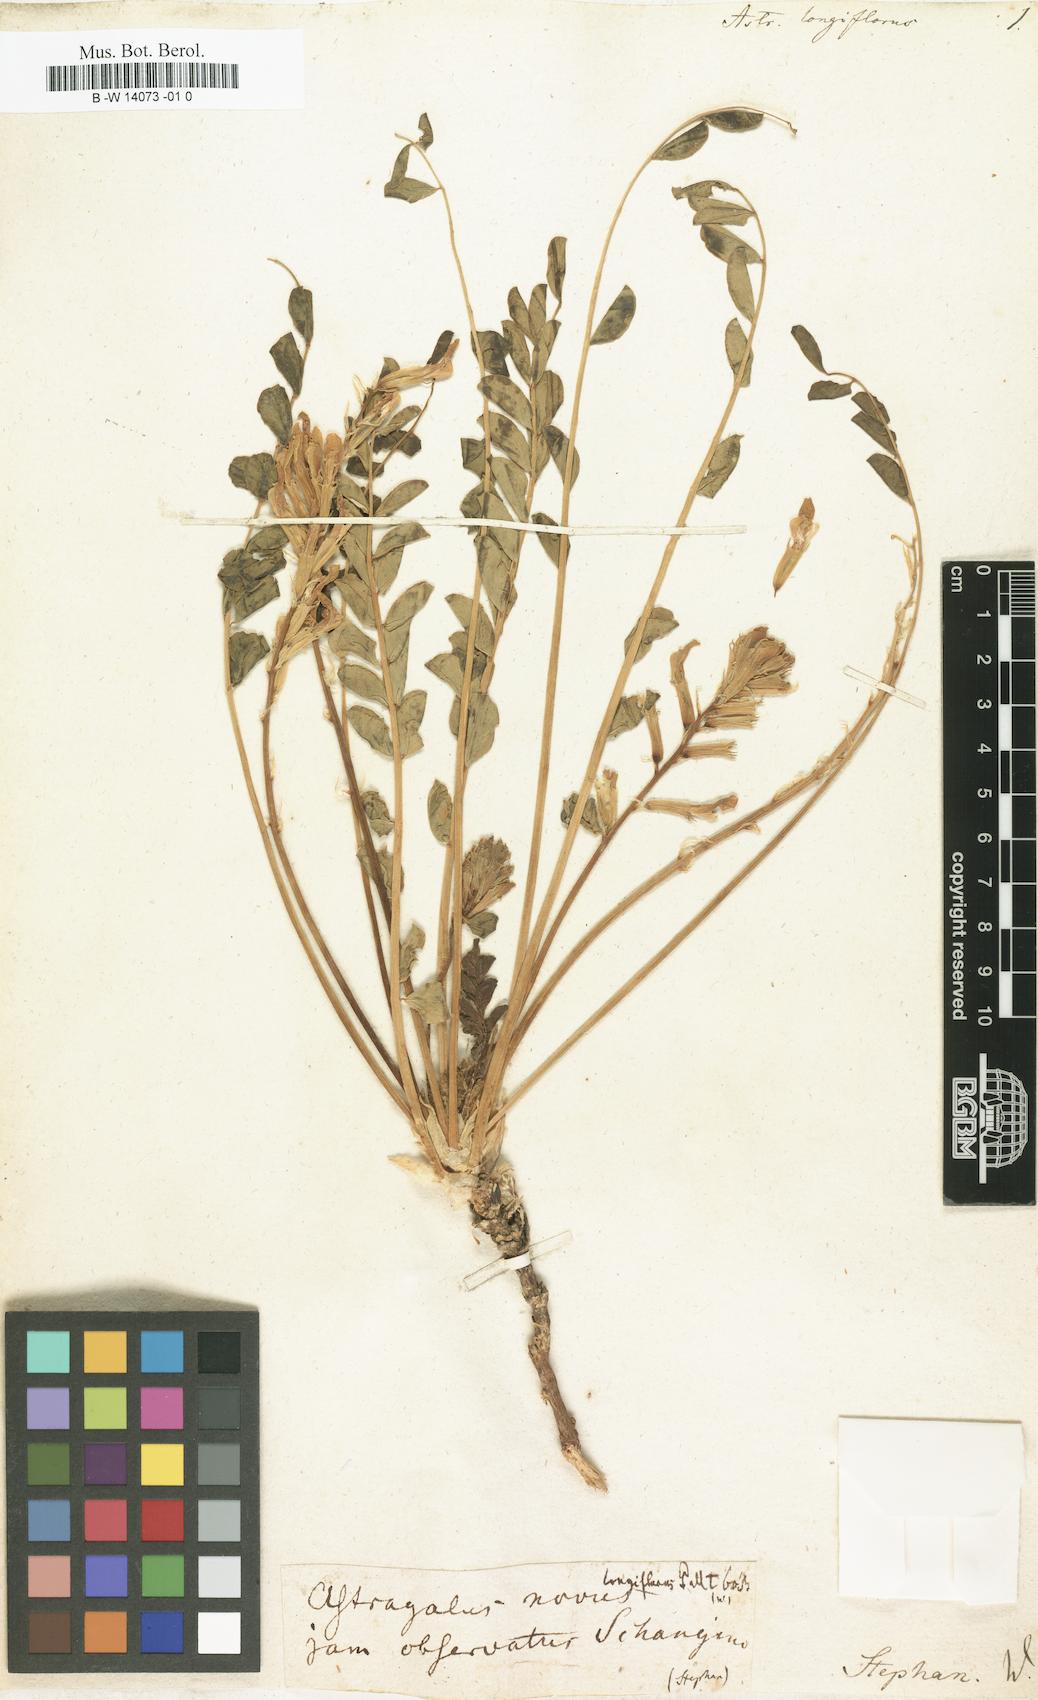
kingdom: Plantae
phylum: Tracheophyta
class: Magnoliopsida
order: Fabales
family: Fabaceae
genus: Astragalus
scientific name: Astragalus testiculatus
